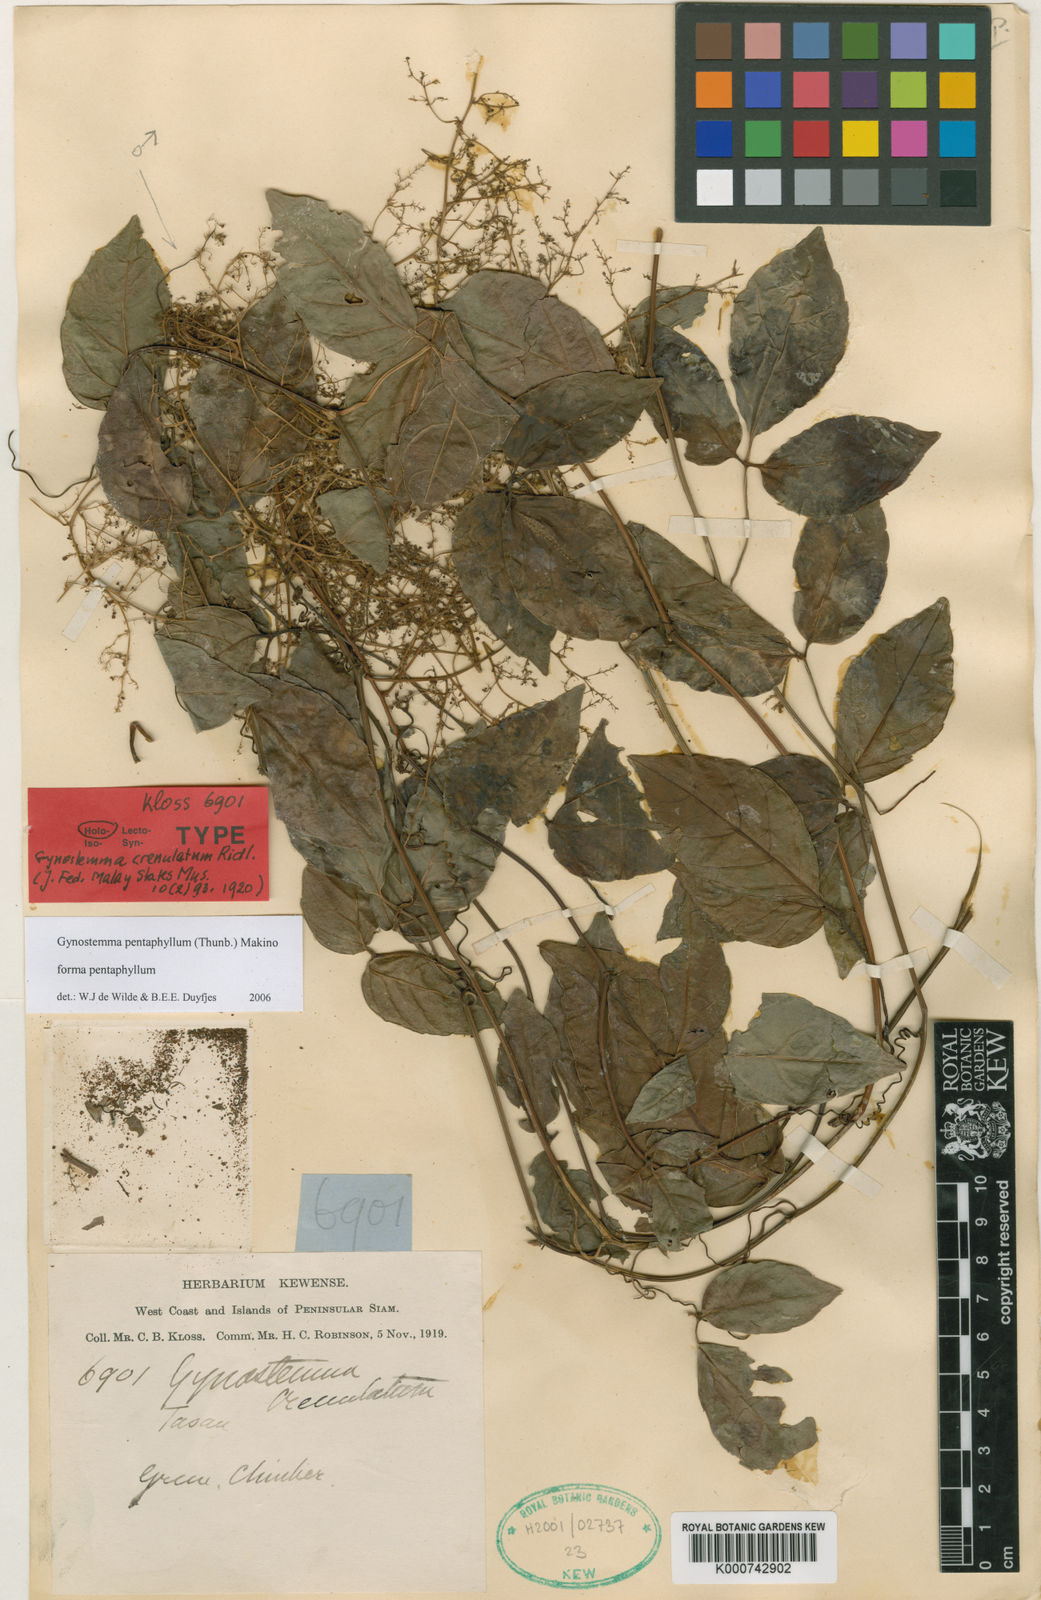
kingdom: Plantae
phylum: Tracheophyta
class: Magnoliopsida
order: Cucurbitales
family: Cucurbitaceae
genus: Gynostemma
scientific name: Gynostemma pentaphyllum
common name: Gynostemma
